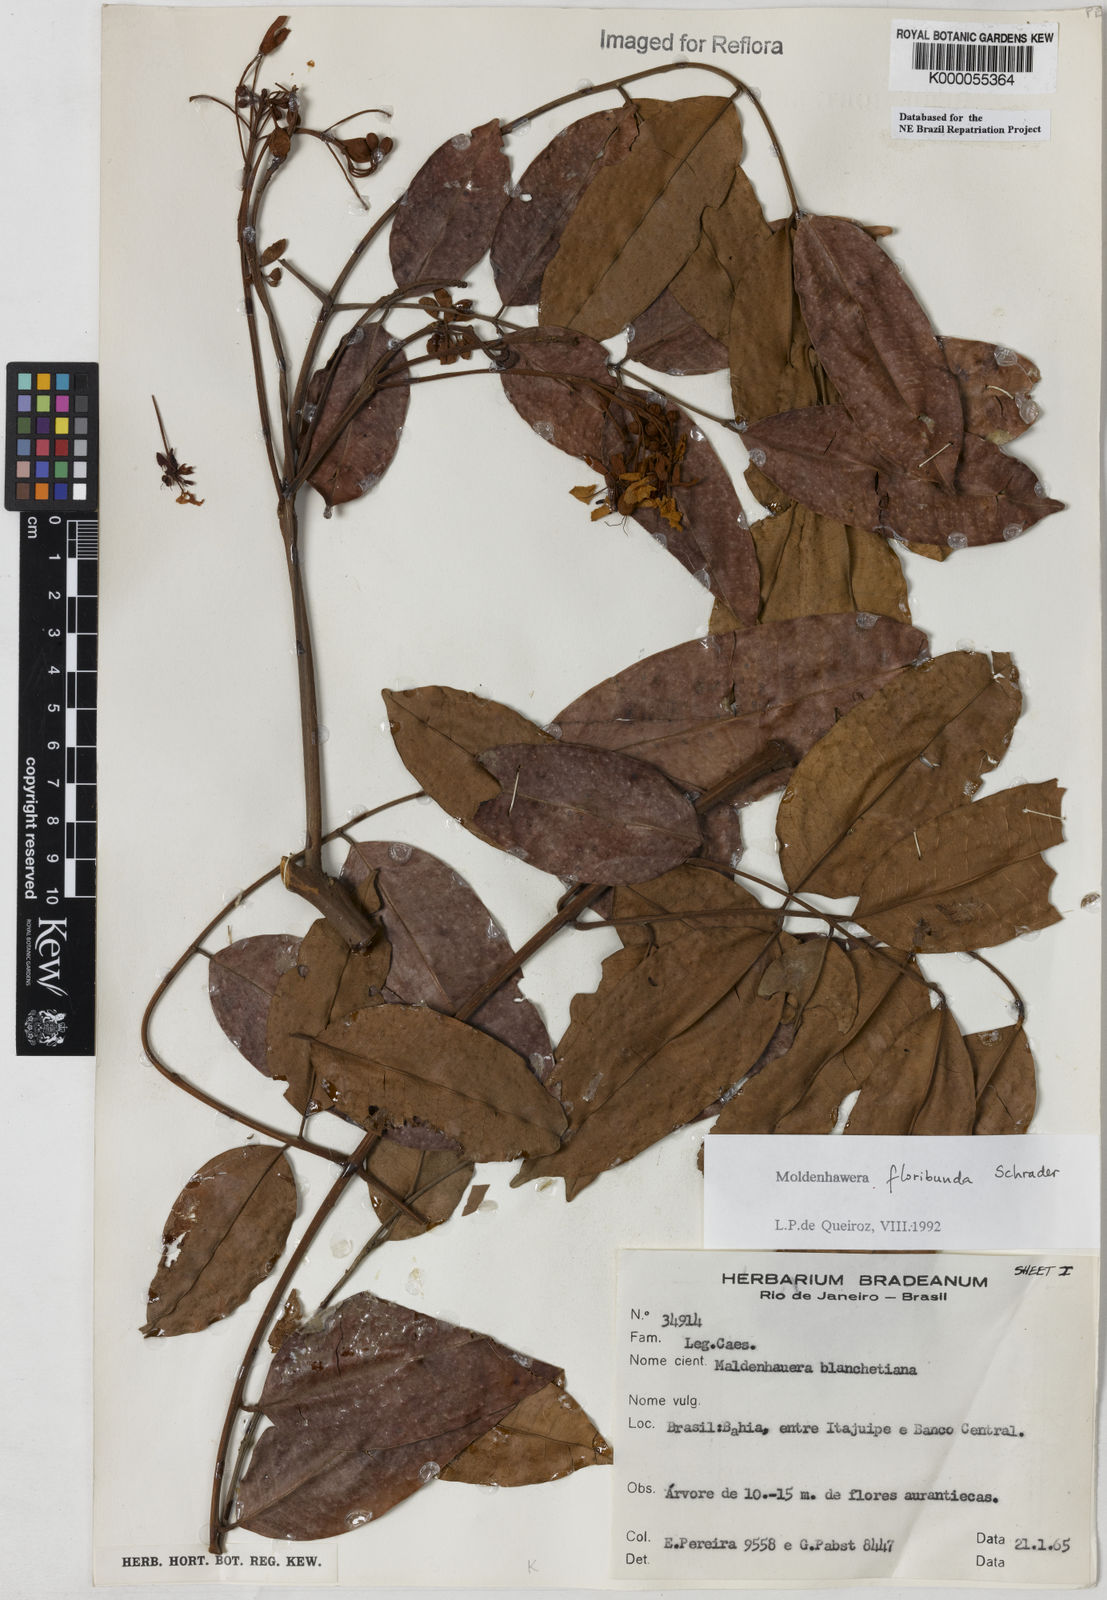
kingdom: Plantae
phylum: Tracheophyta
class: Magnoliopsida
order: Fabales
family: Fabaceae
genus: Moldenhawera
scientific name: Moldenhawera floribunda
